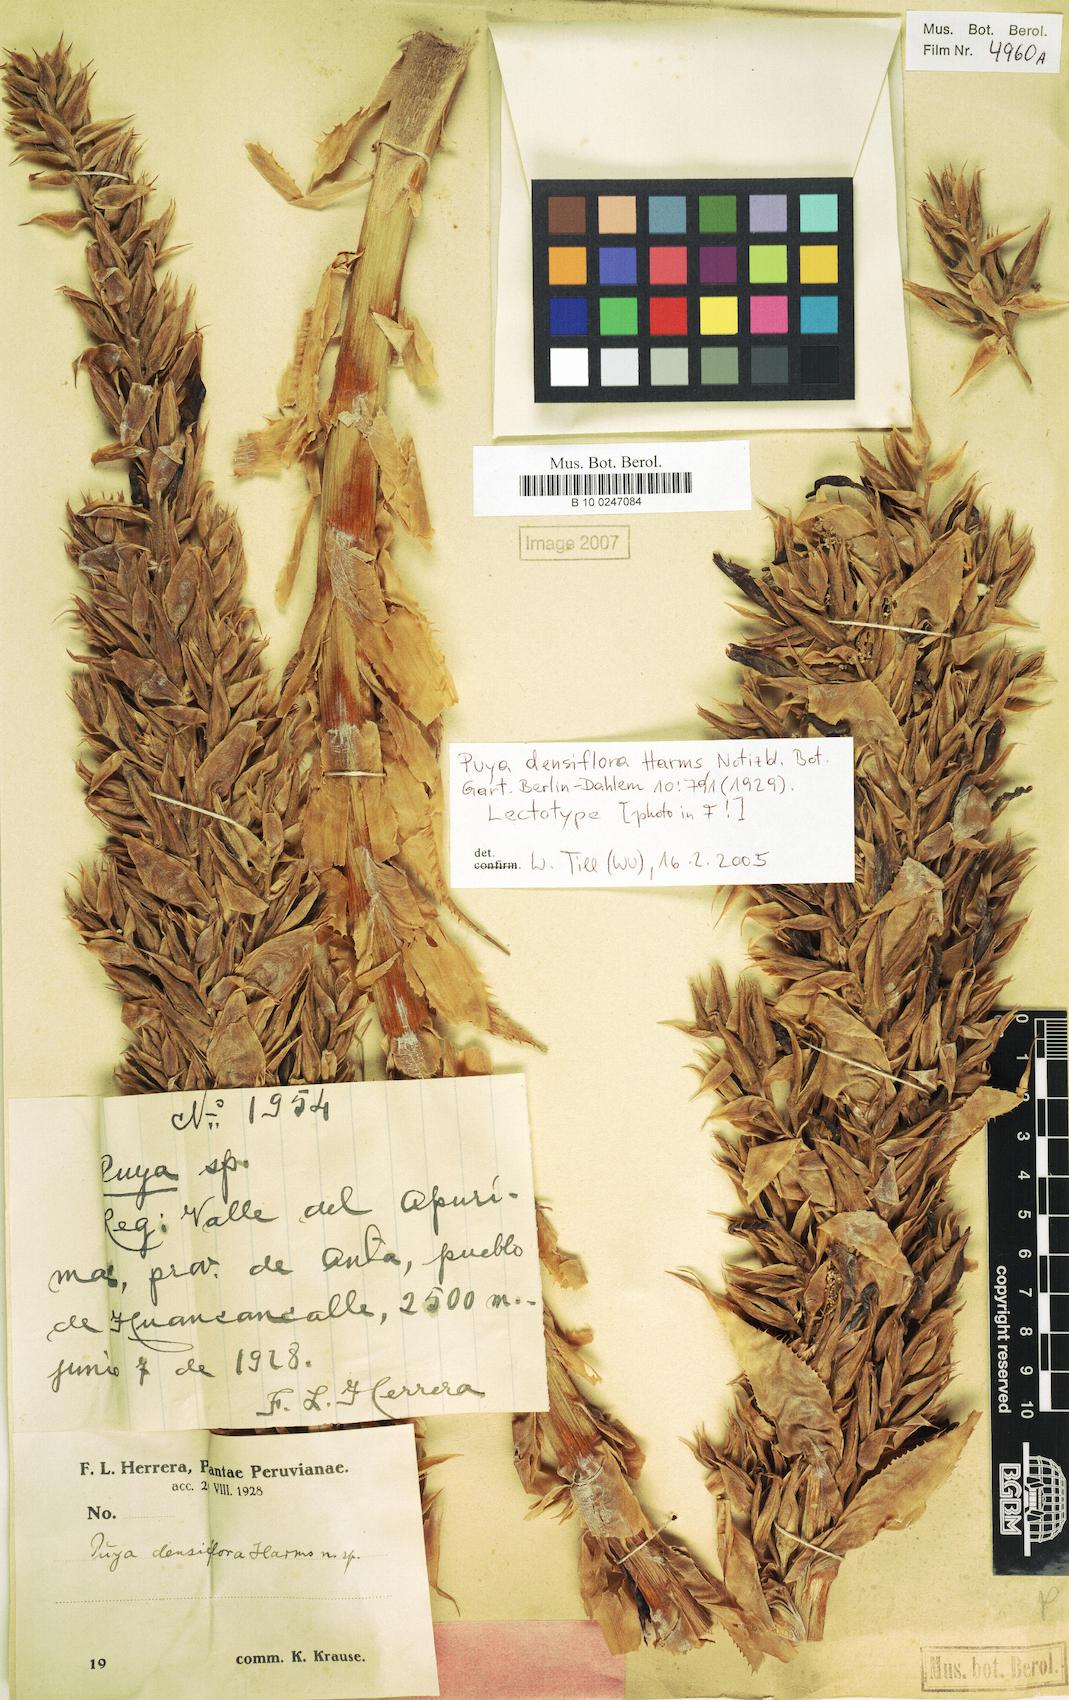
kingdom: Plantae
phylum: Tracheophyta
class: Liliopsida
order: Poales
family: Bromeliaceae
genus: Puya
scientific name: Puya densiflora
